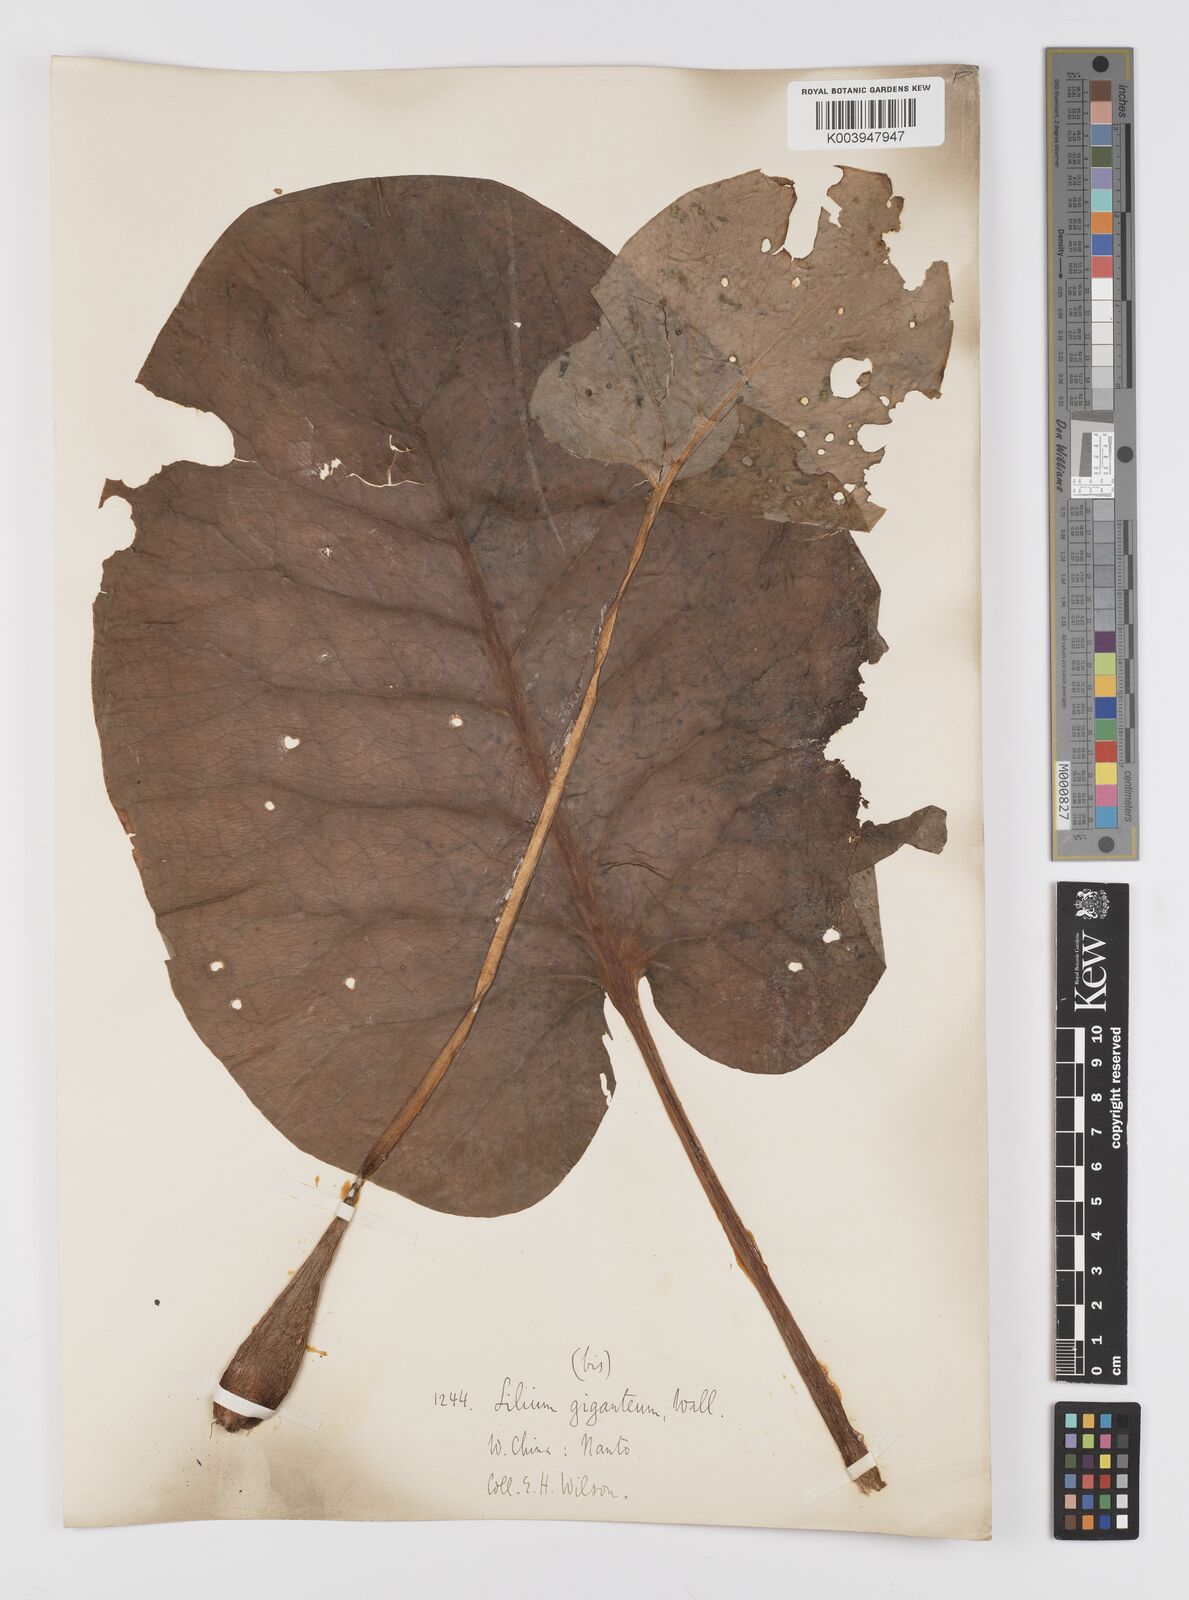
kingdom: Plantae
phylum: Tracheophyta
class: Liliopsida
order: Liliales
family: Liliaceae
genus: Cardiocrinum
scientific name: Cardiocrinum giganteum
